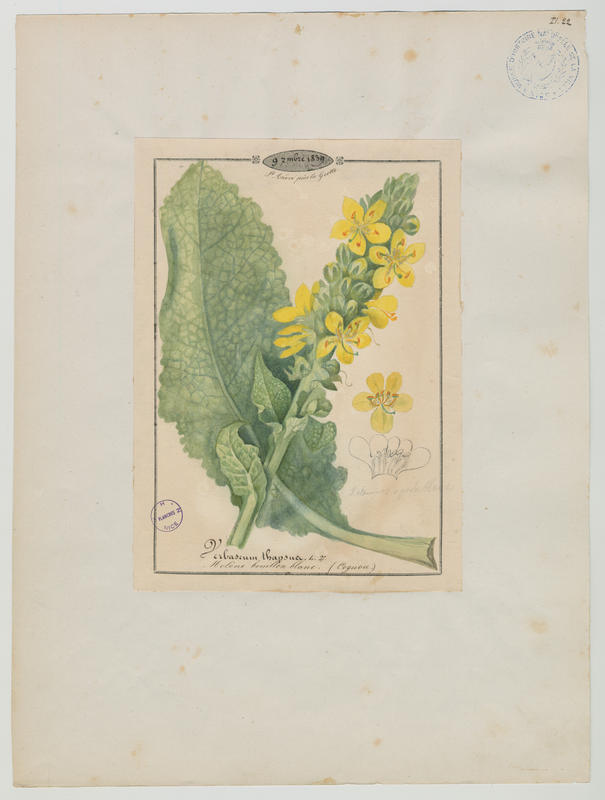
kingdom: Plantae
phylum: Tracheophyta
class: Magnoliopsida
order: Lamiales
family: Scrophulariaceae
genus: Verbascum
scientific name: Verbascum thapsus
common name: Common mullein
